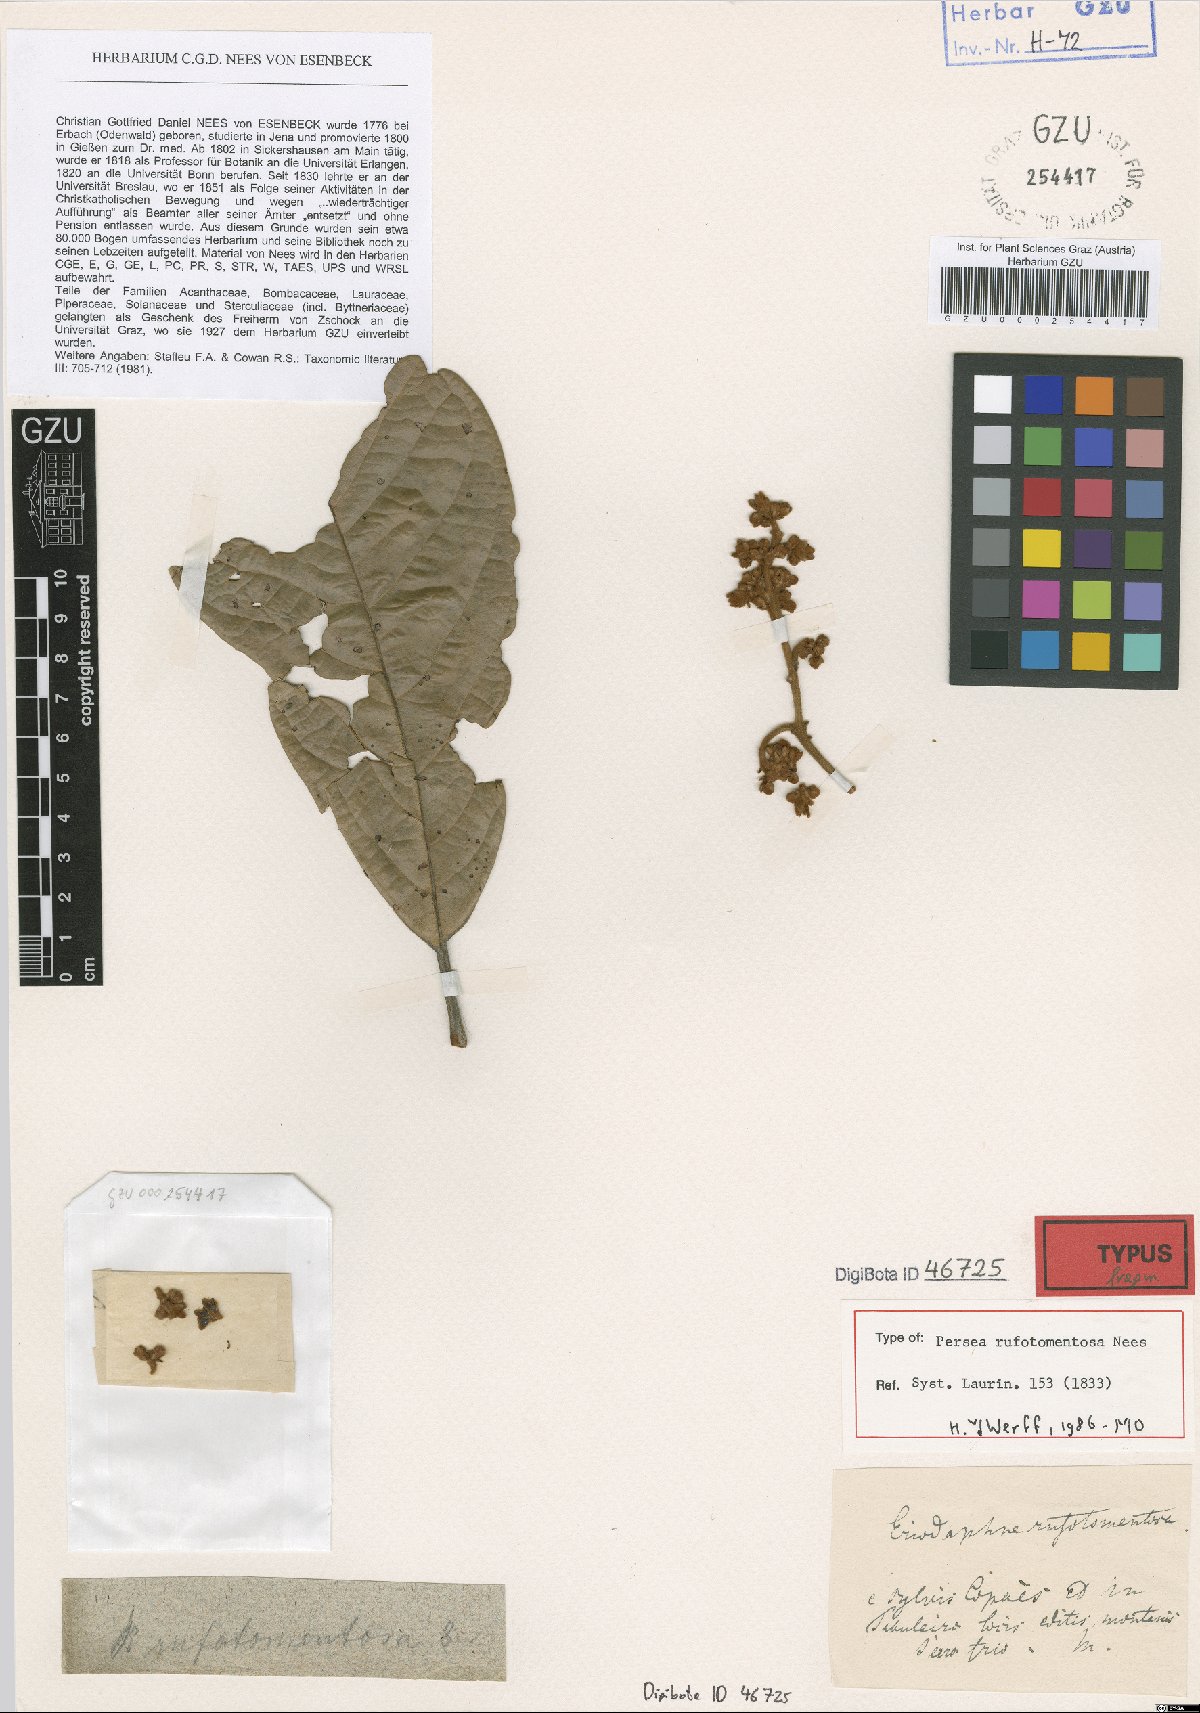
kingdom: Plantae
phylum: Tracheophyta
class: Magnoliopsida
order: Laurales
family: Lauraceae
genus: Persea
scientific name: Persea rufotomentosa
